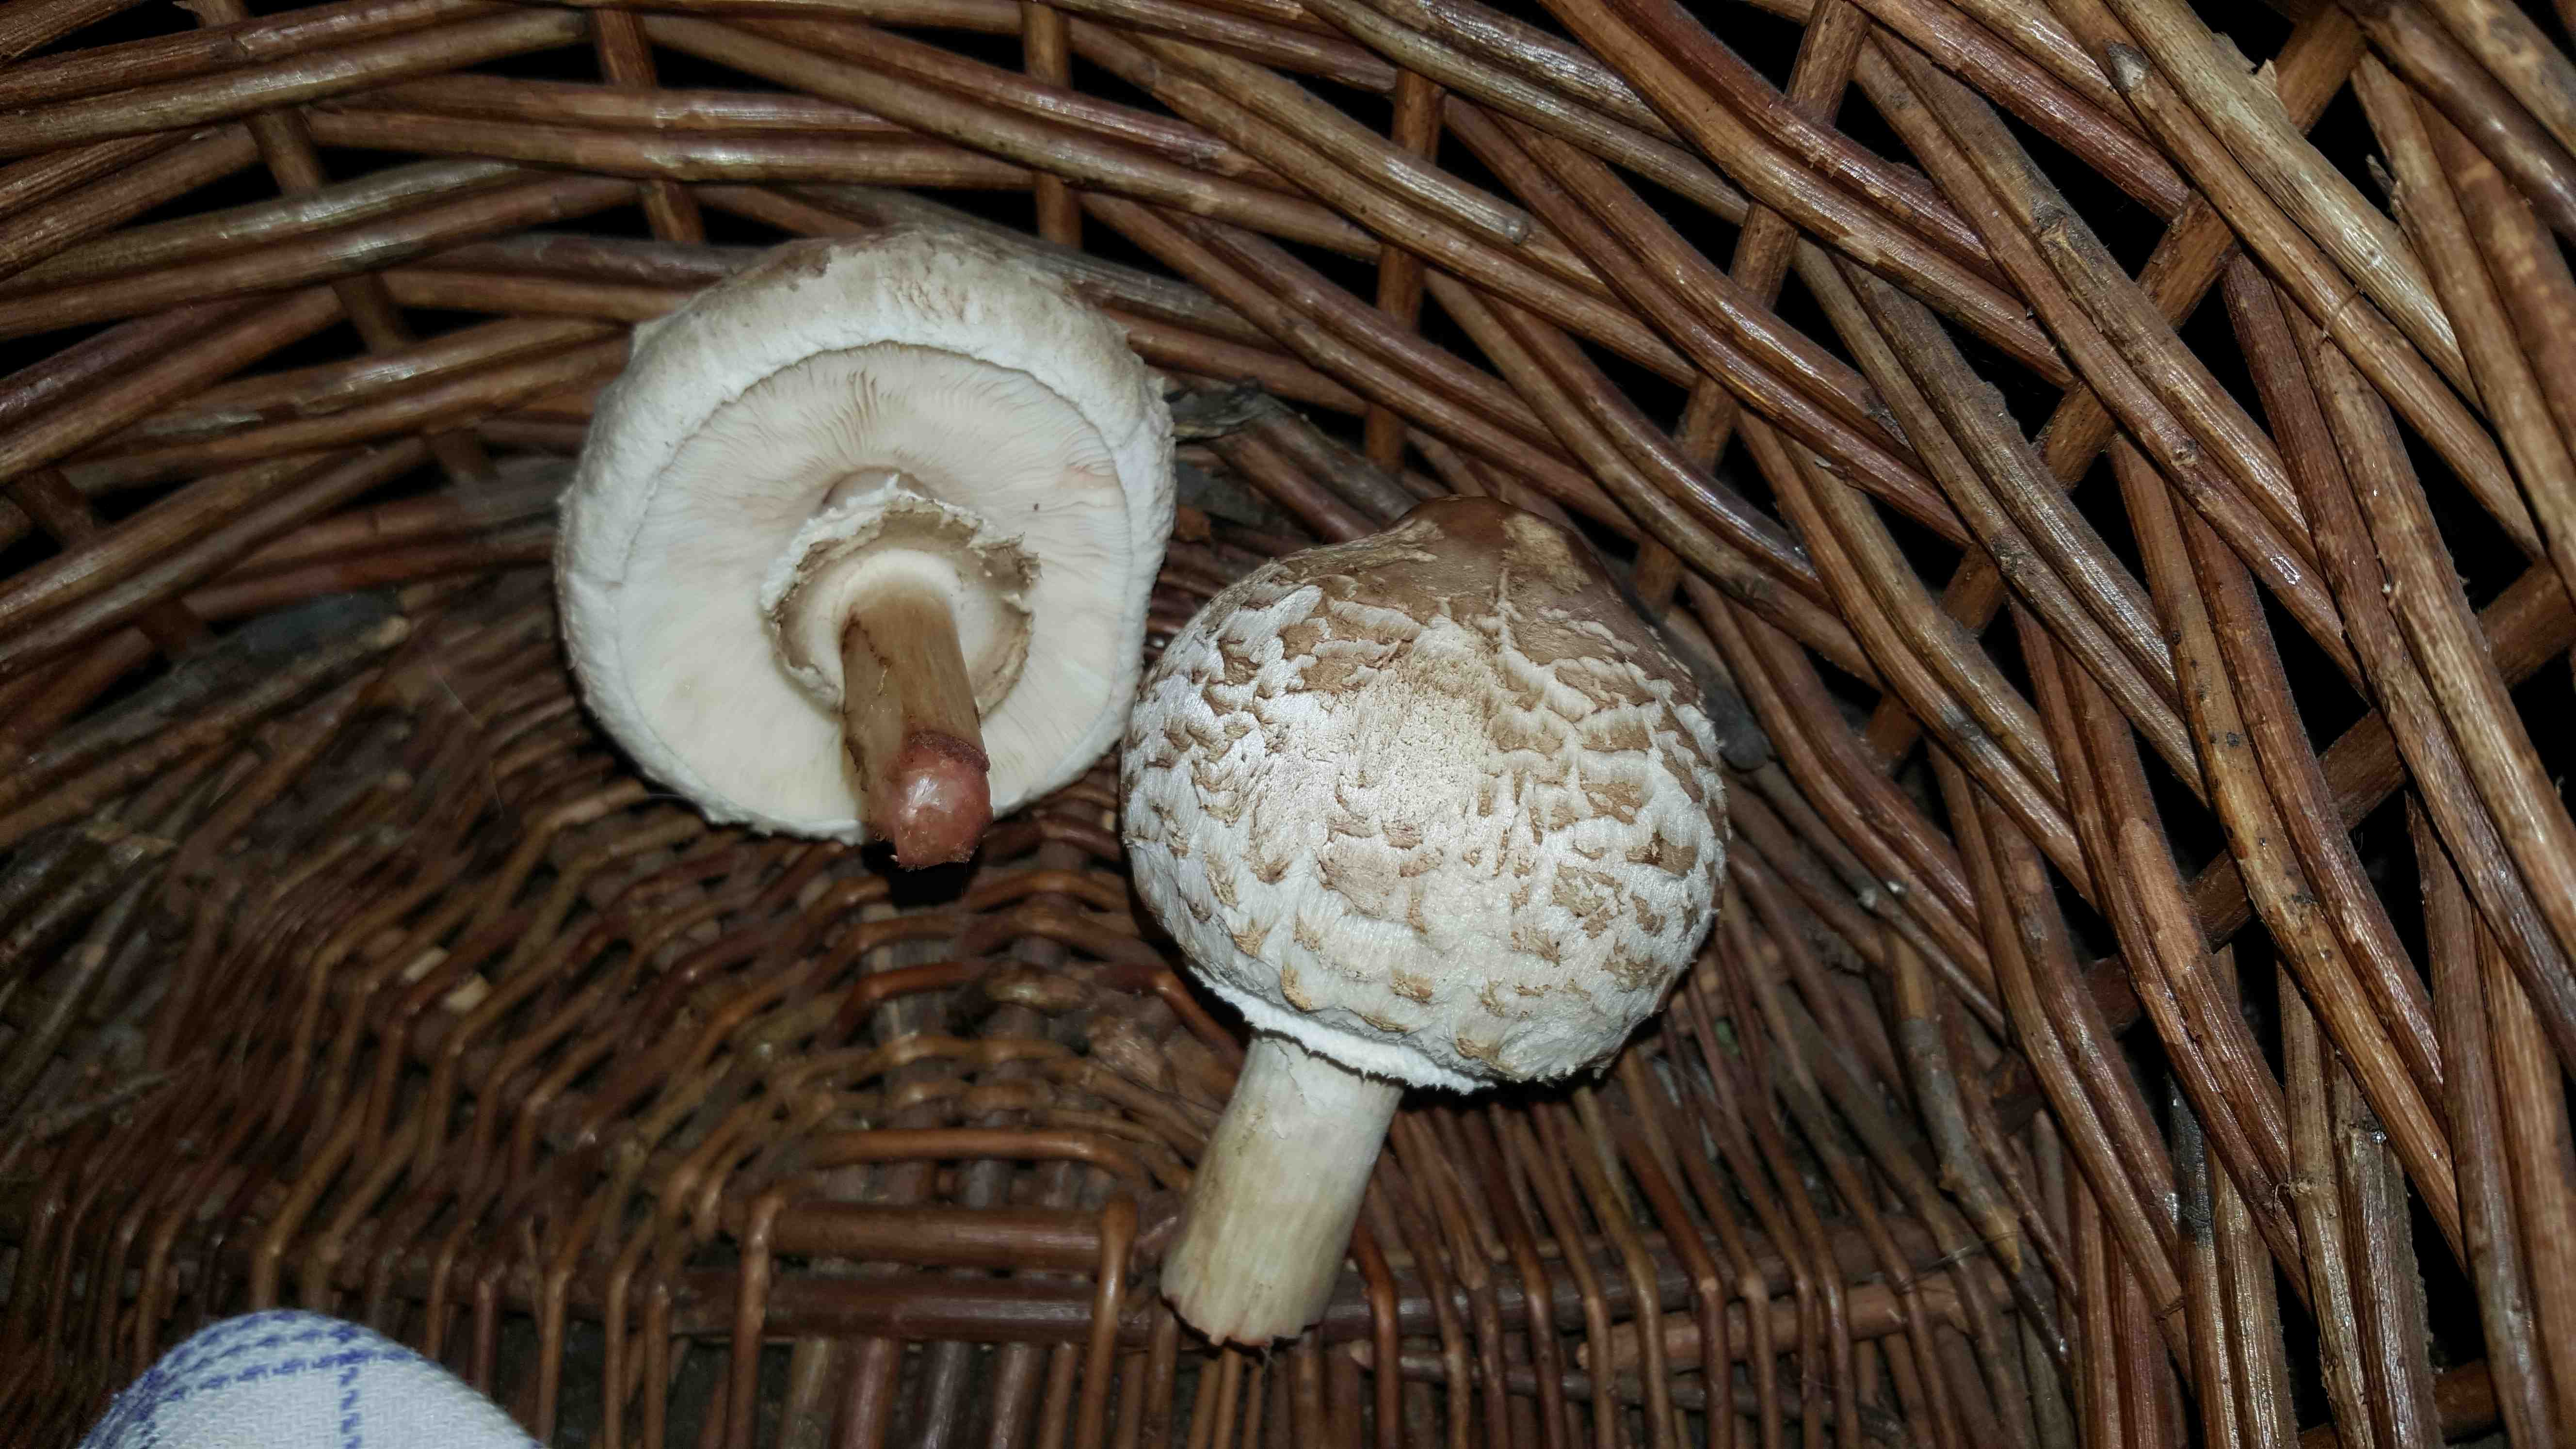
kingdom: Fungi
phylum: Basidiomycota
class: Agaricomycetes
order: Agaricales
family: Agaricaceae
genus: Chlorophyllum
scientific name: Chlorophyllum
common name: rabarberhat
